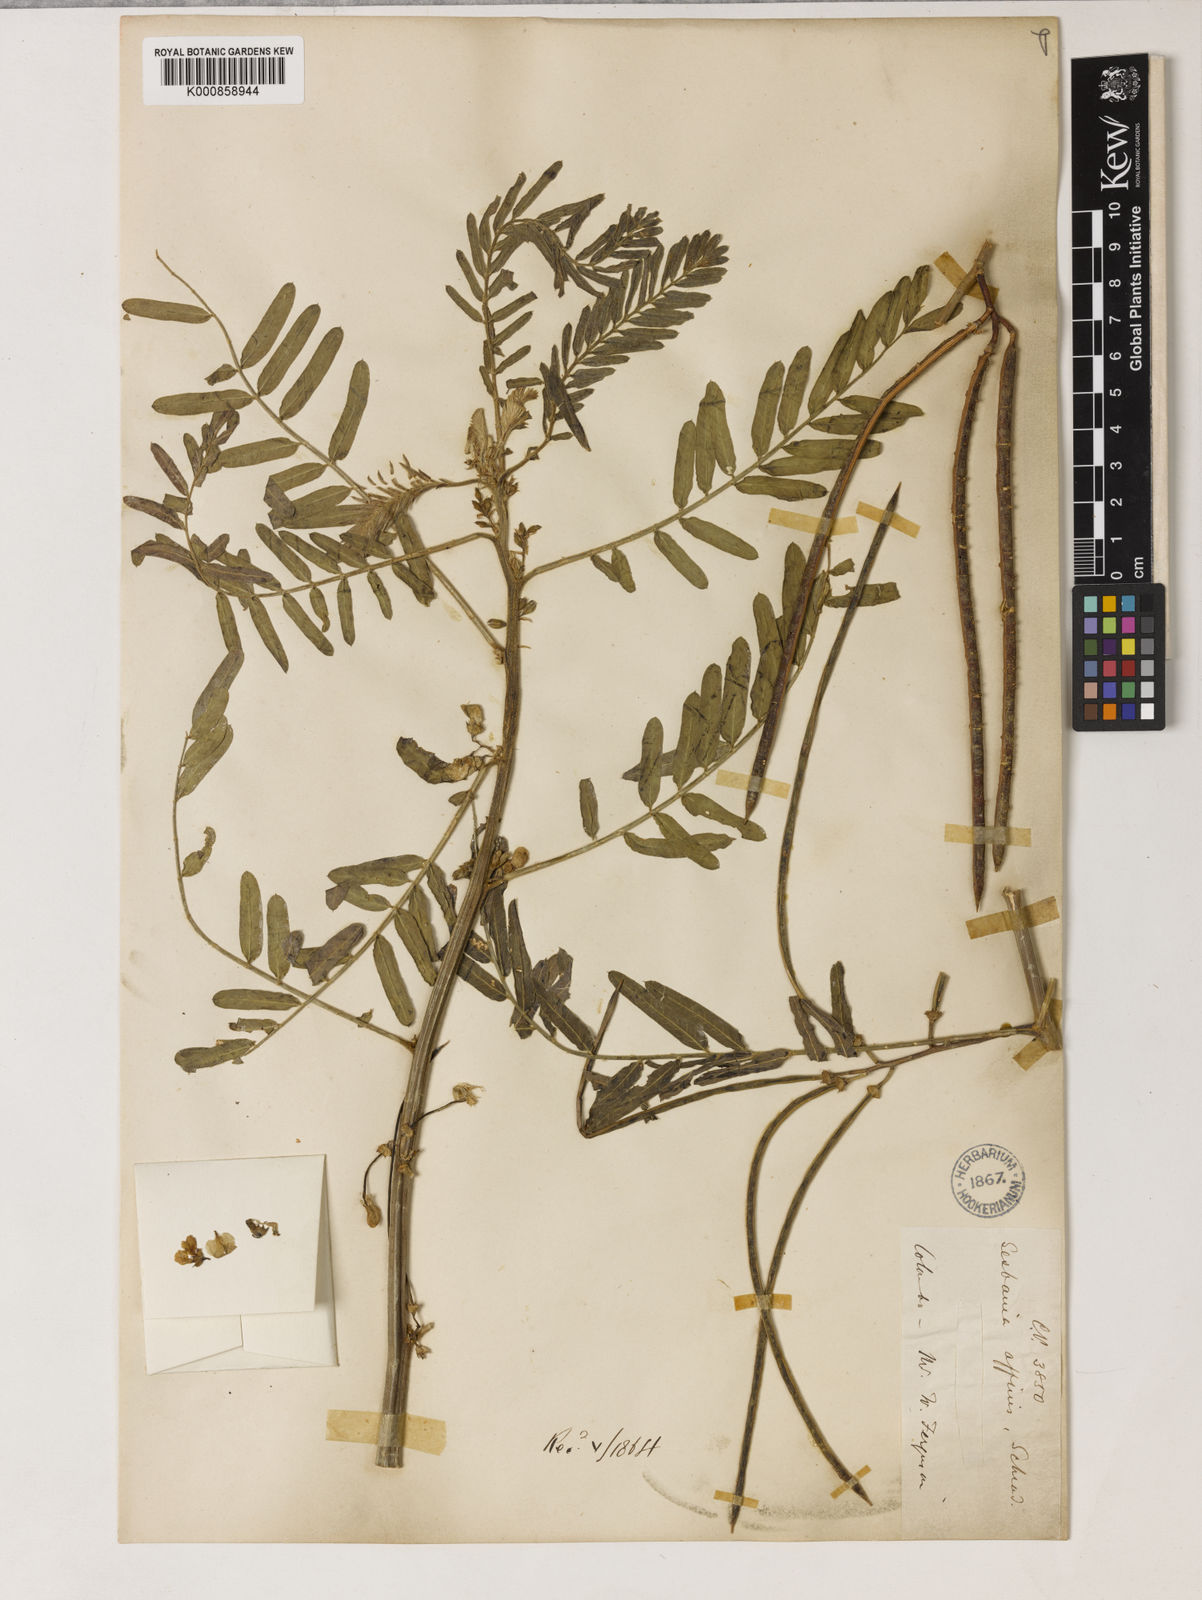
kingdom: Plantae
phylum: Tracheophyta
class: Magnoliopsida
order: Fabales
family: Fabaceae
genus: Sesbania
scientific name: Sesbania
